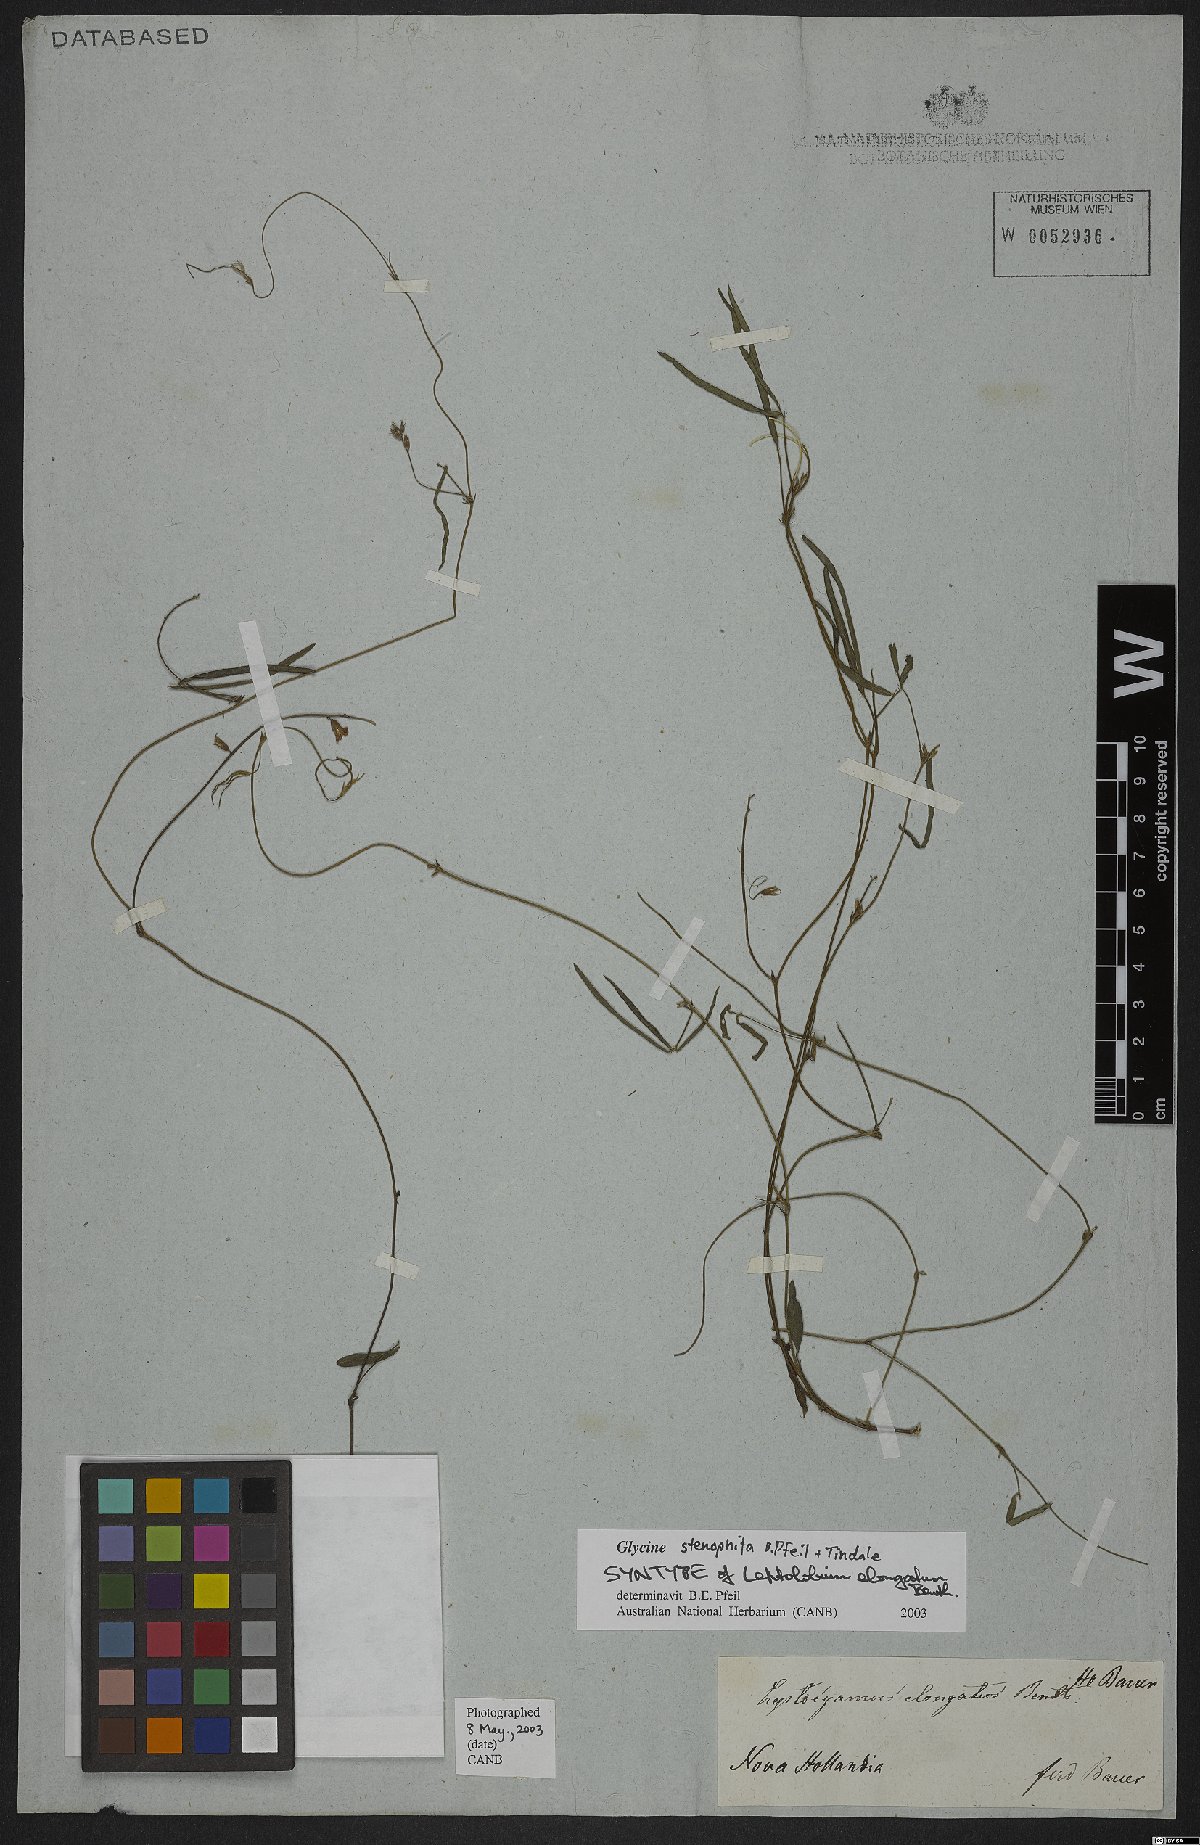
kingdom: Plantae
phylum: Tracheophyta
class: Magnoliopsida
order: Fabales
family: Fabaceae
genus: Glycine
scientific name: Glycine stenophita
